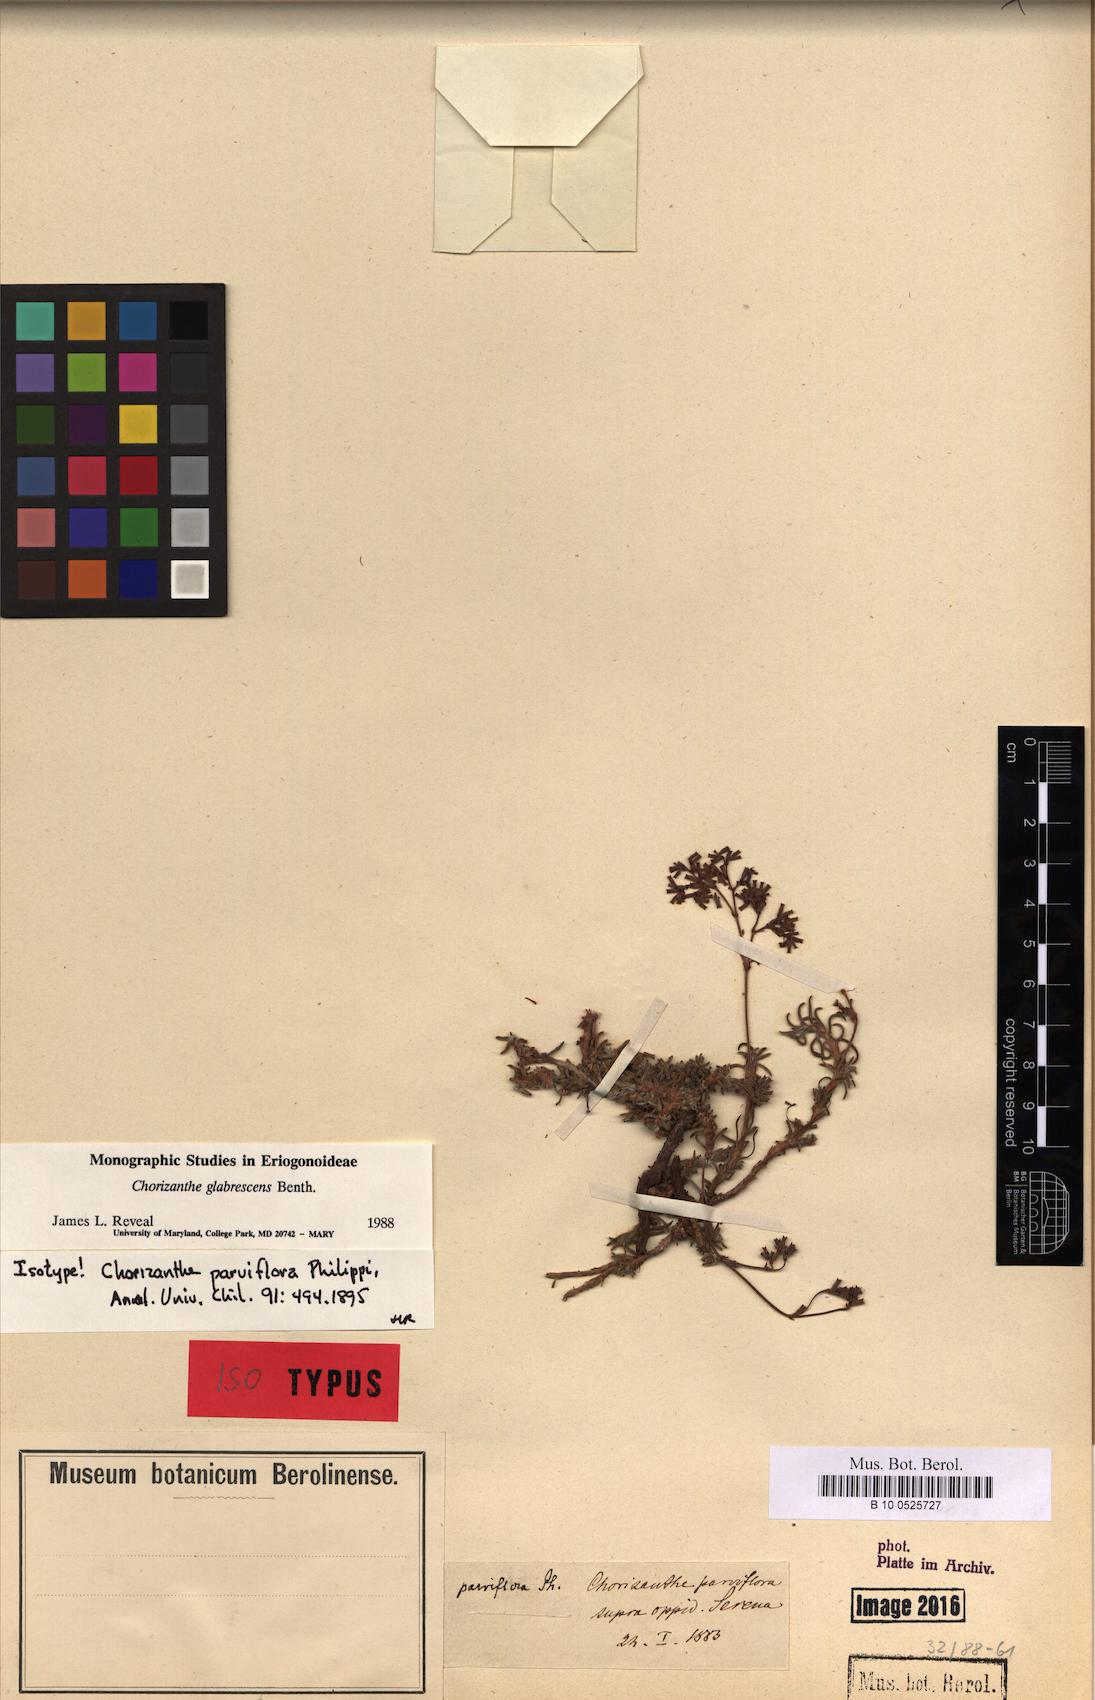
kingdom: Plantae
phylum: Tracheophyta
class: Magnoliopsida
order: Caryophyllales
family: Polygonaceae
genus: Chorizanthe
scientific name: Chorizanthe dasyantha
